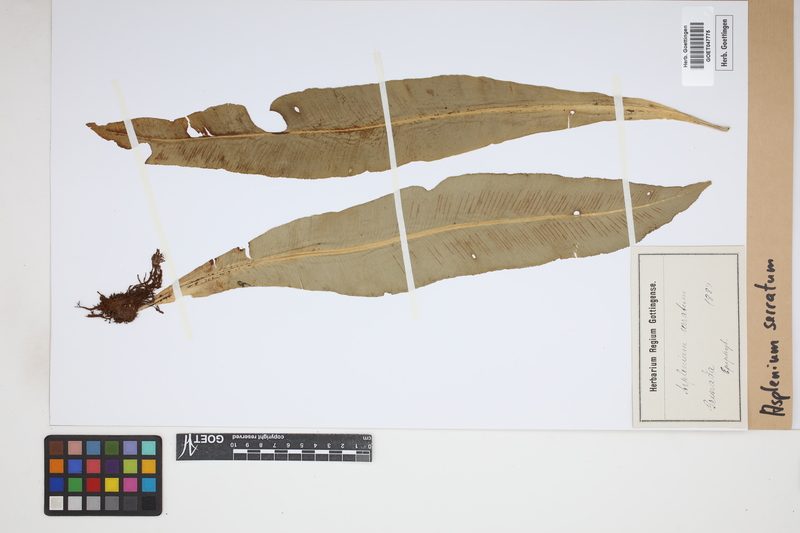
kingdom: Plantae
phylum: Tracheophyta
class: Polypodiopsida
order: Polypodiales
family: Aspleniaceae
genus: Asplenium
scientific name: Asplenium serratum
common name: Wild birdnest fern
